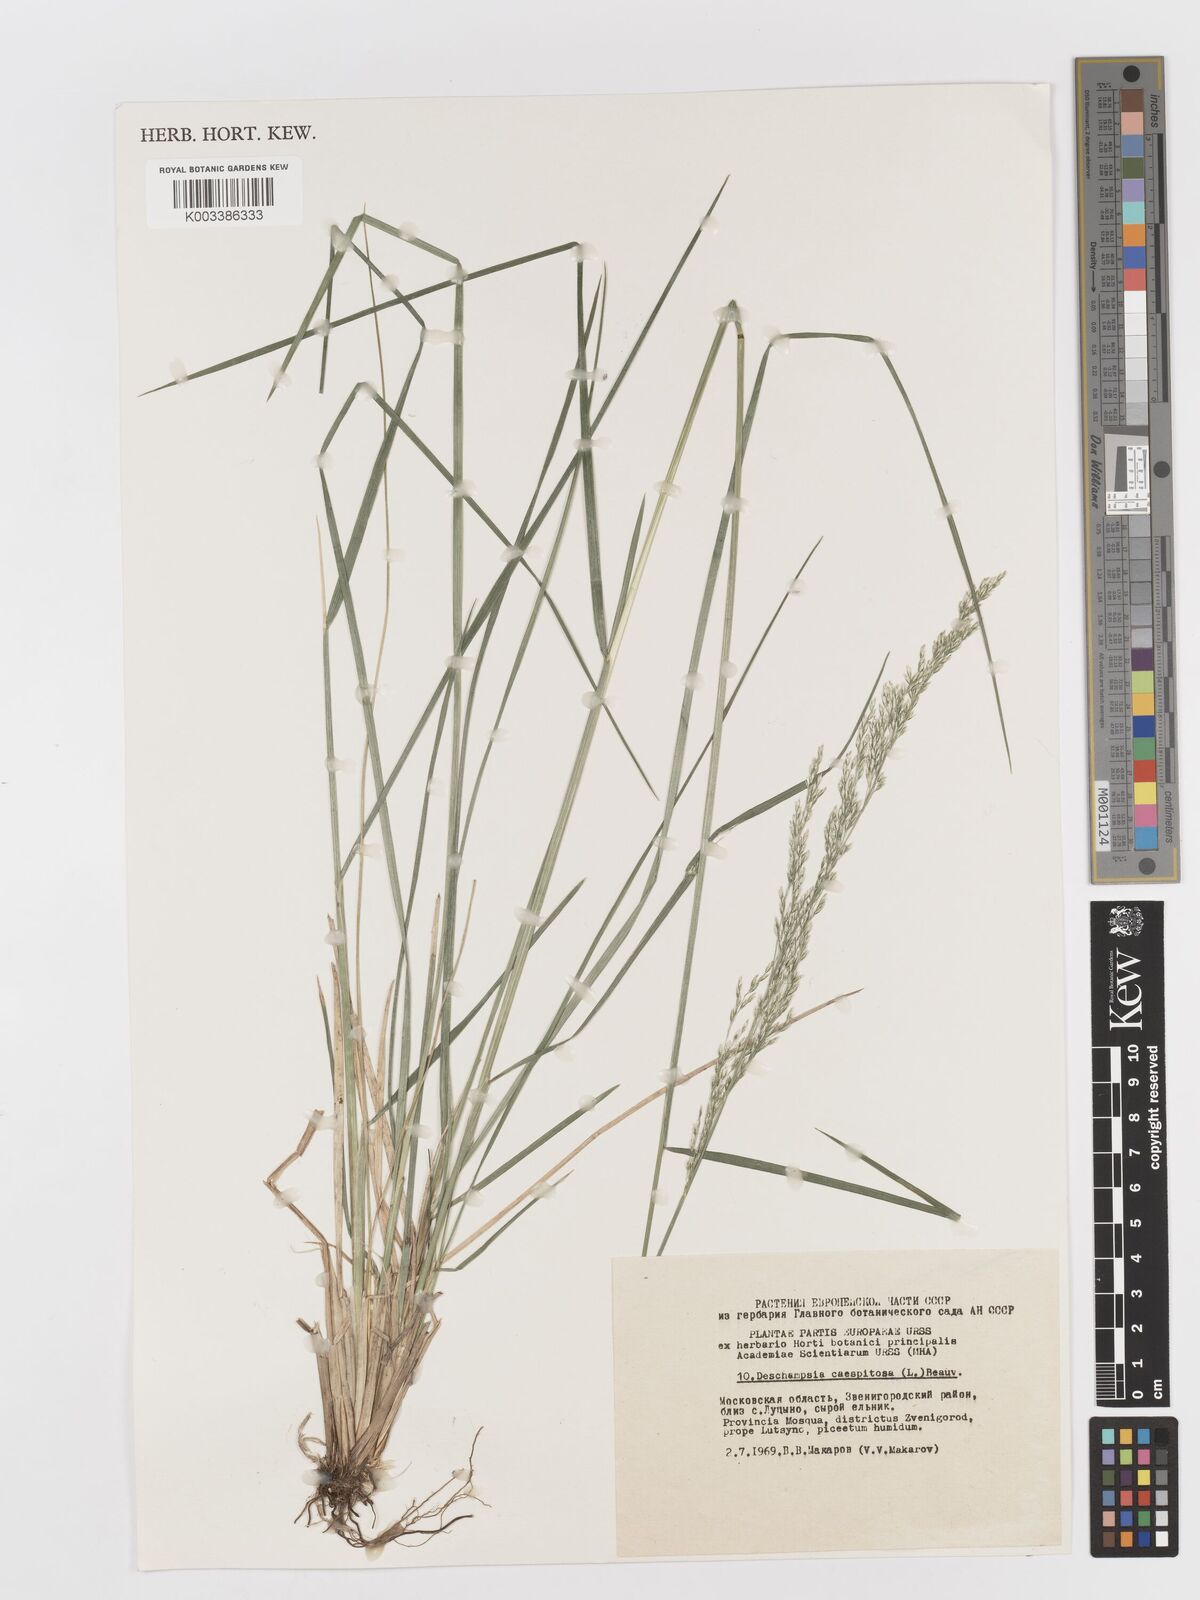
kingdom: Plantae
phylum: Tracheophyta
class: Liliopsida
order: Poales
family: Poaceae
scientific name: Poaceae
